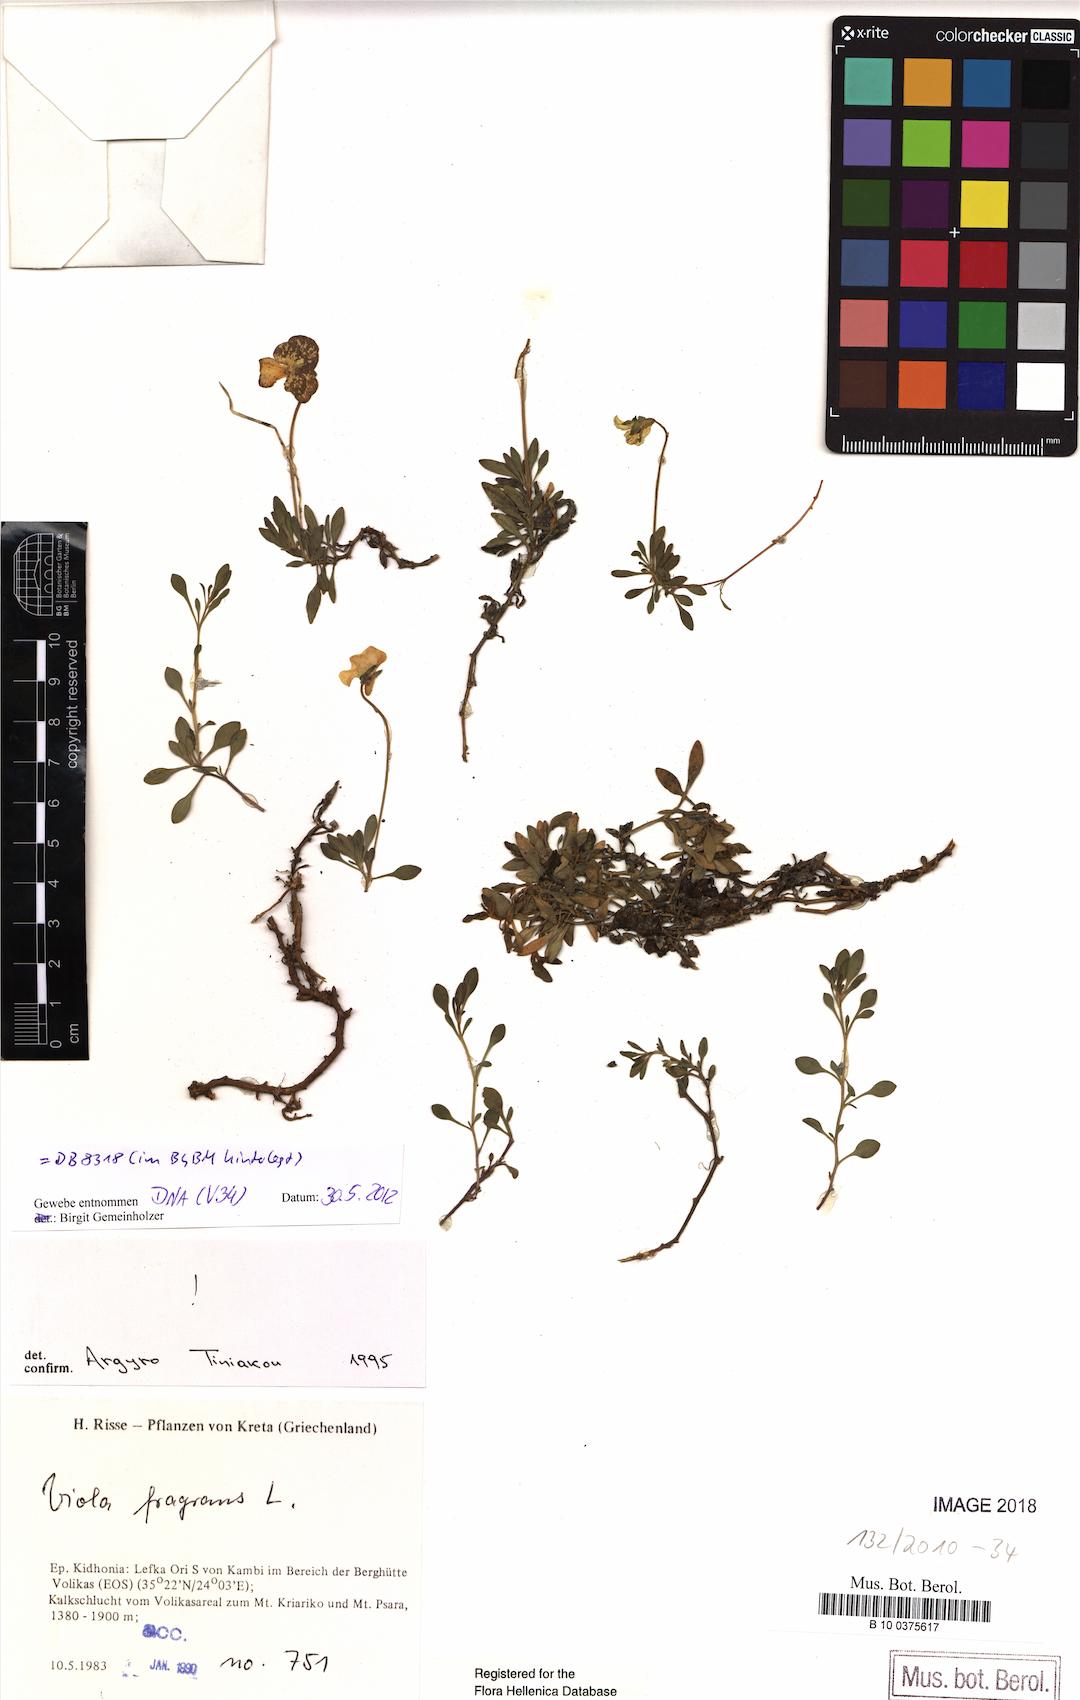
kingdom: Plantae
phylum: Tracheophyta
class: Magnoliopsida
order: Malpighiales
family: Violaceae
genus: Viola
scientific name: Viola fragrans
